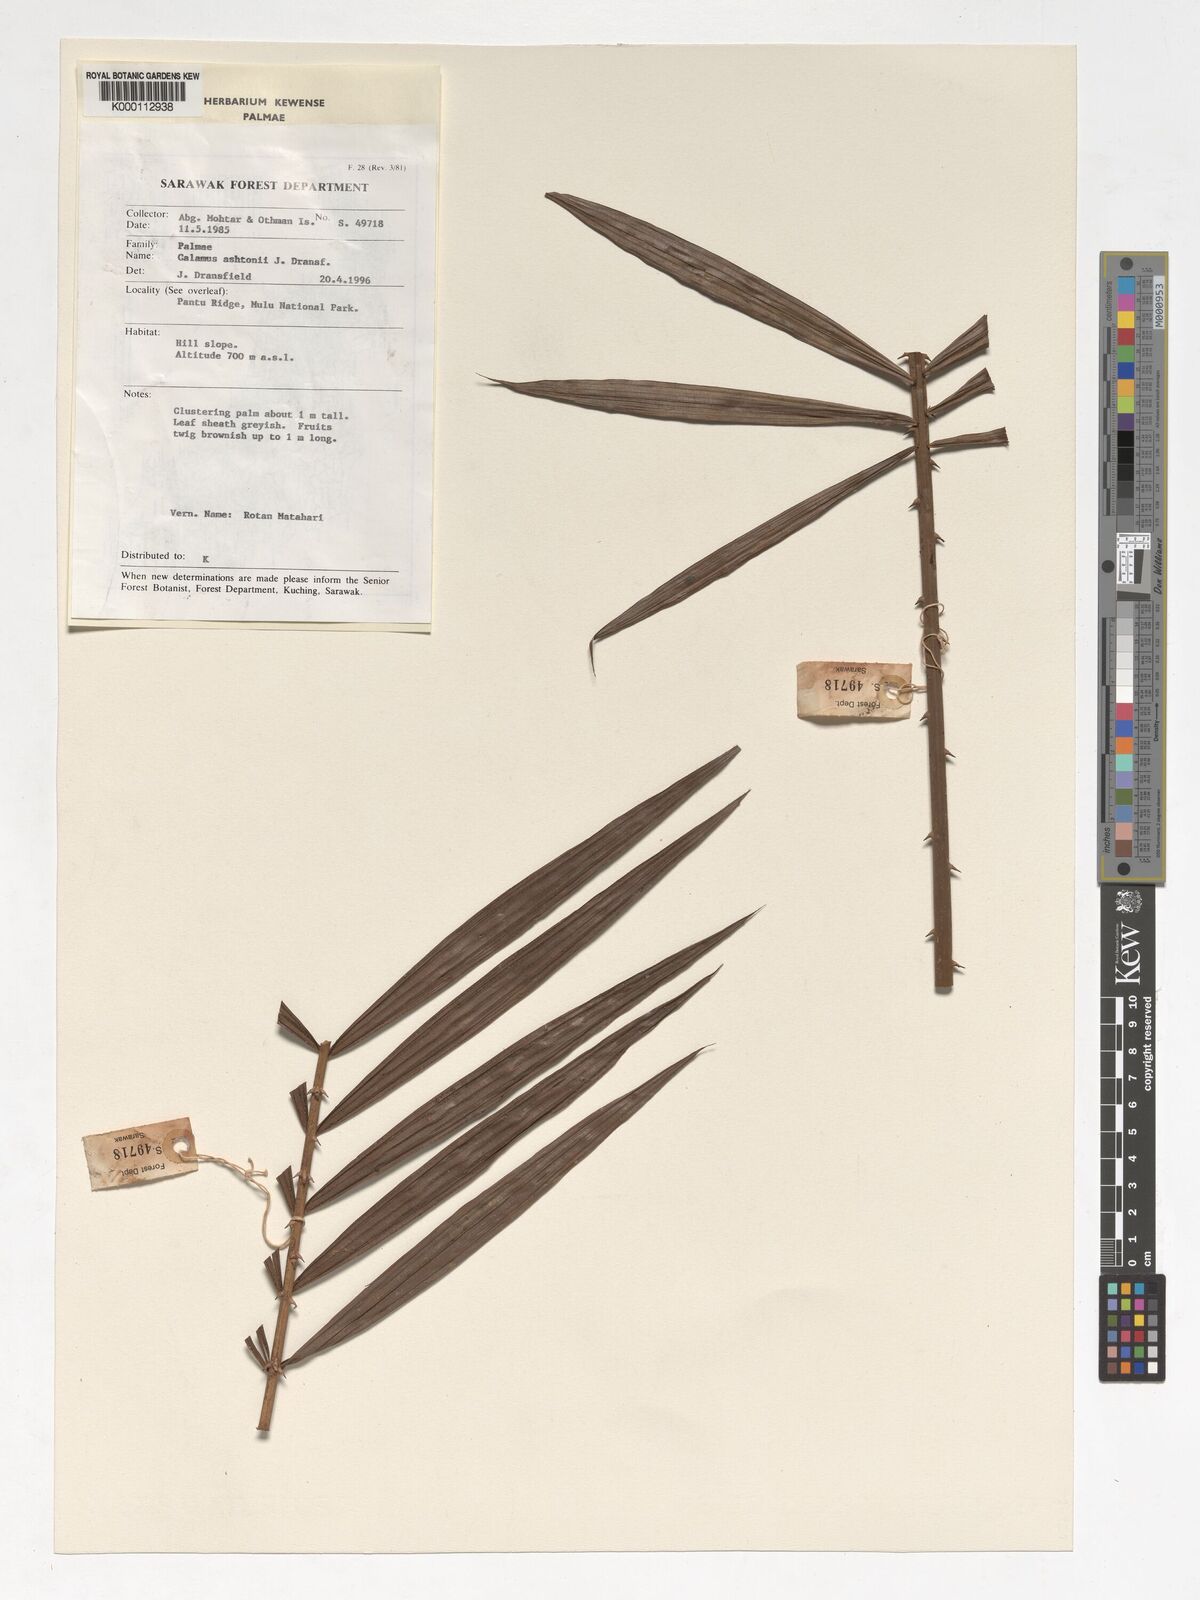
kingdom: Plantae
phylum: Tracheophyta
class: Liliopsida
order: Arecales
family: Arecaceae
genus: Calamus
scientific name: Calamus ashtonii
